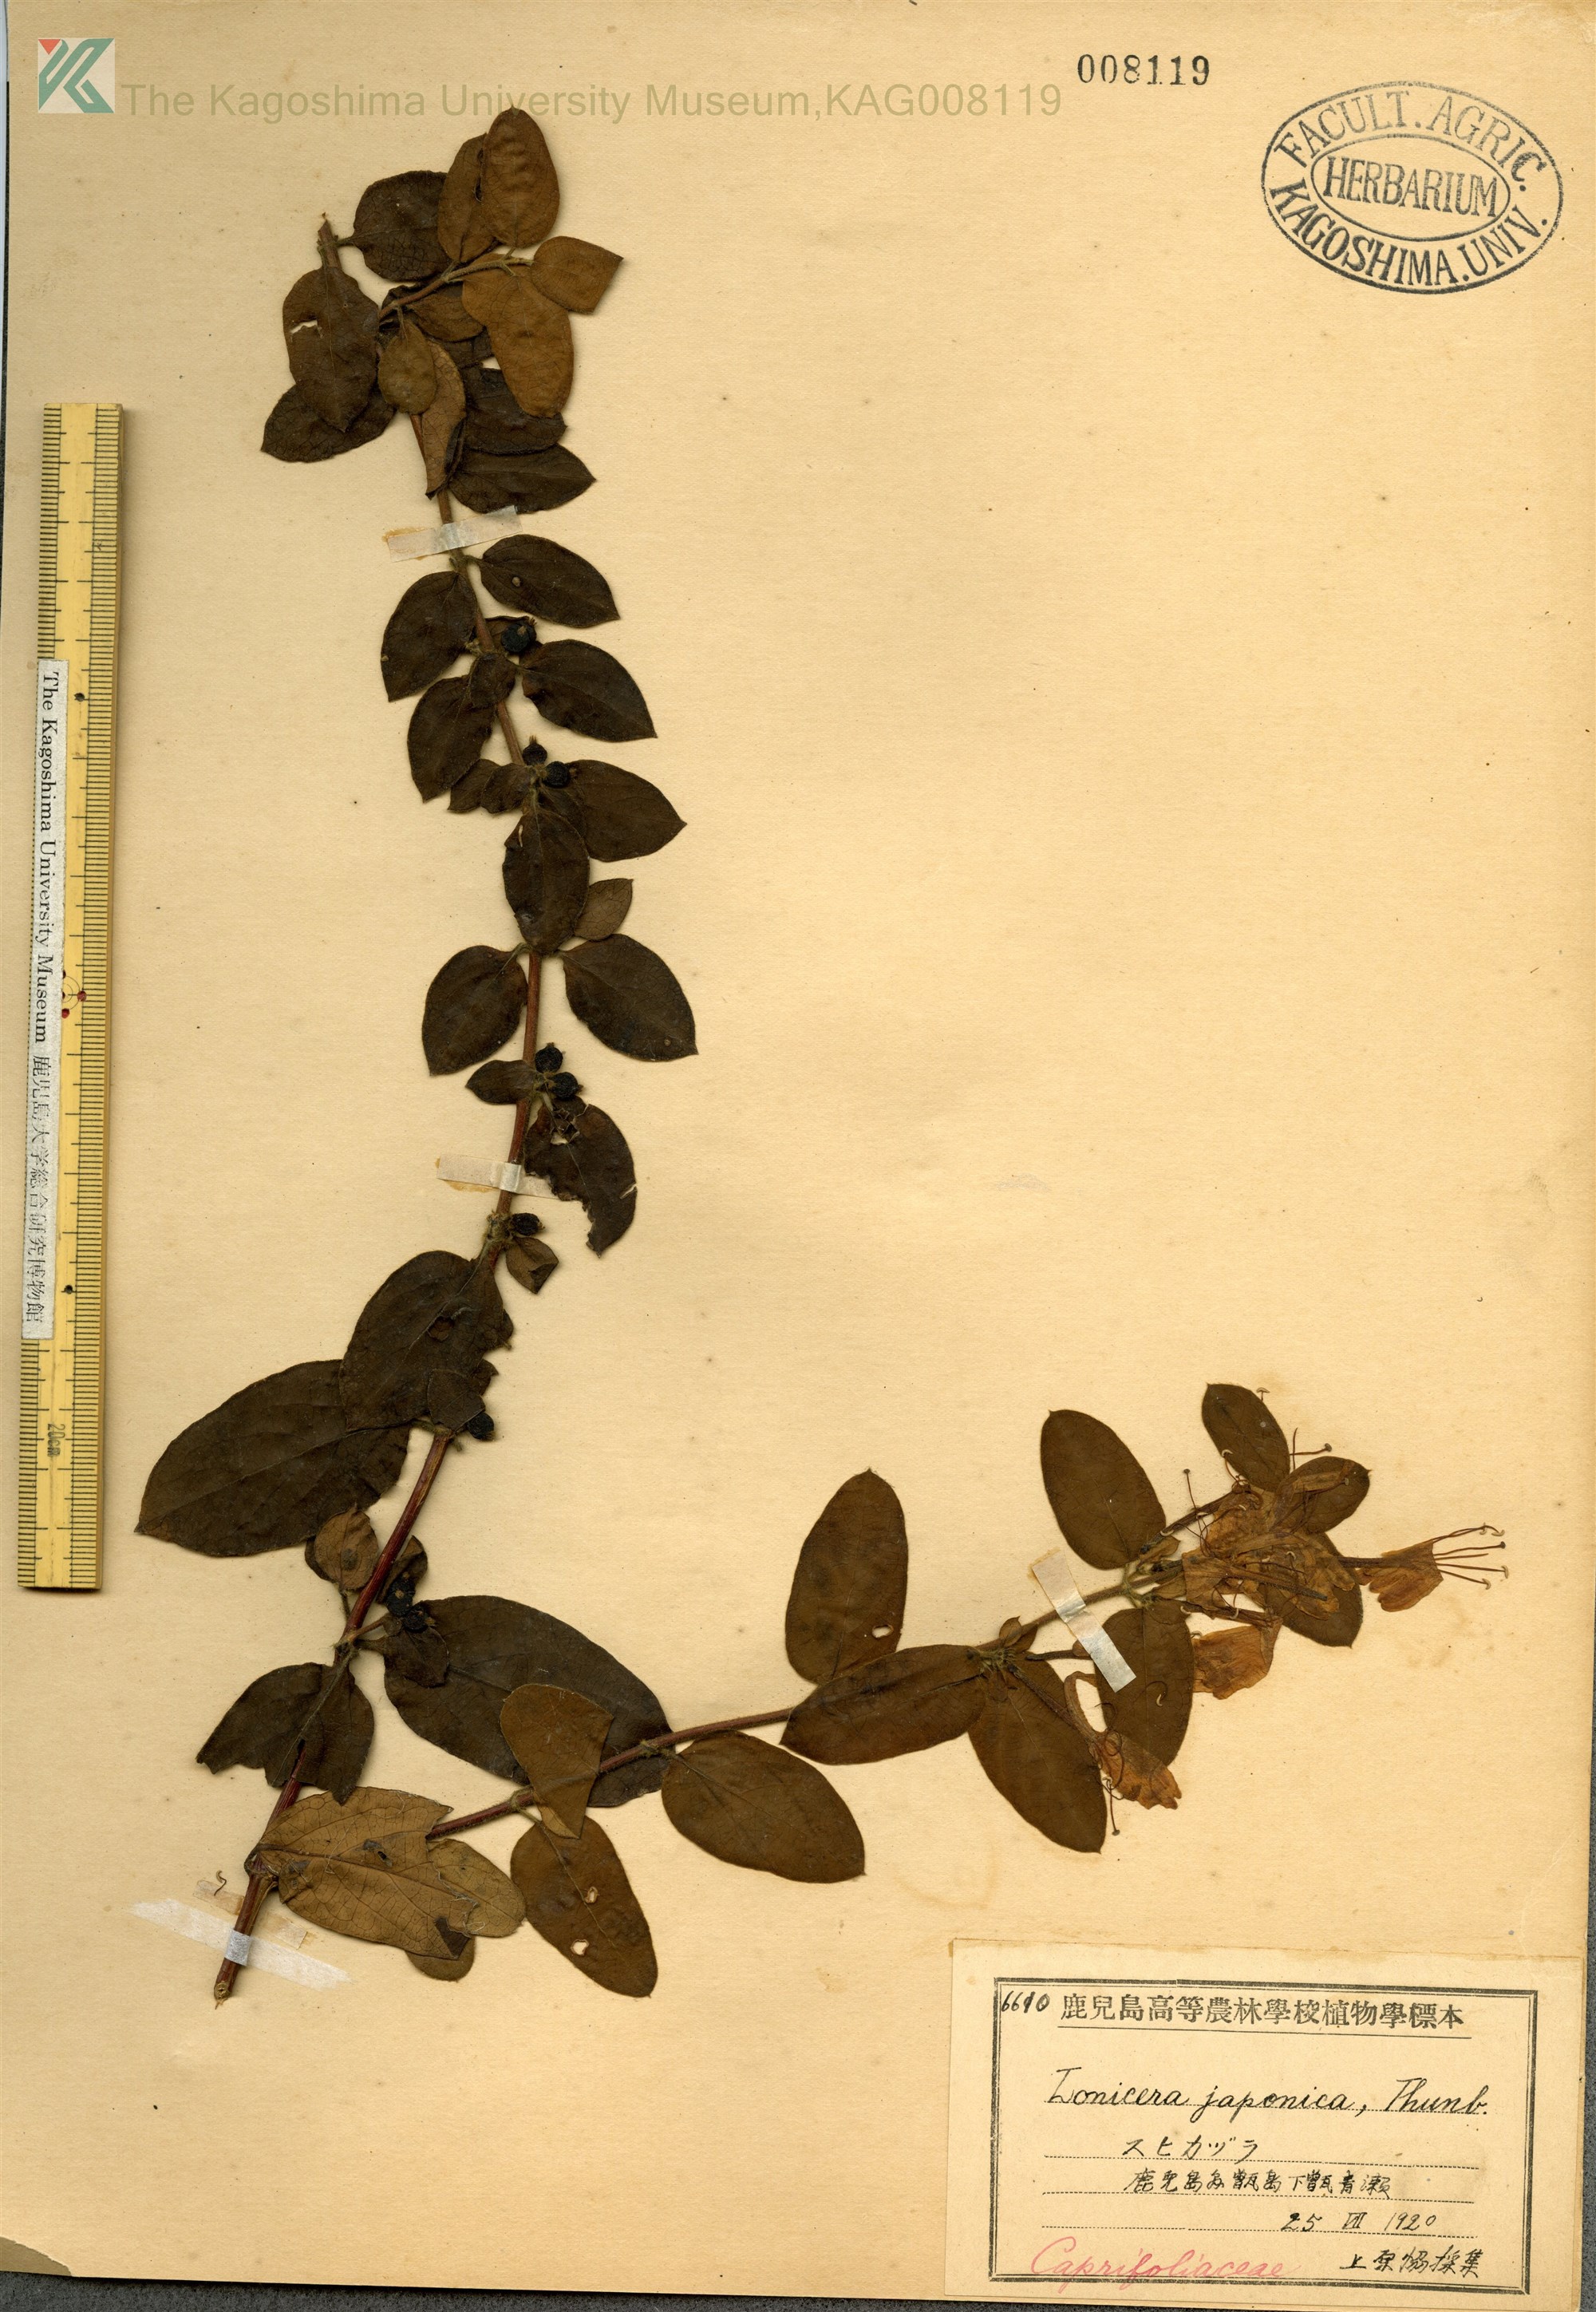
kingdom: Plantae
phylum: Tracheophyta
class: Magnoliopsida
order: Dipsacales
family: Caprifoliaceae
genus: Lonicera
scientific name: Lonicera japonica
